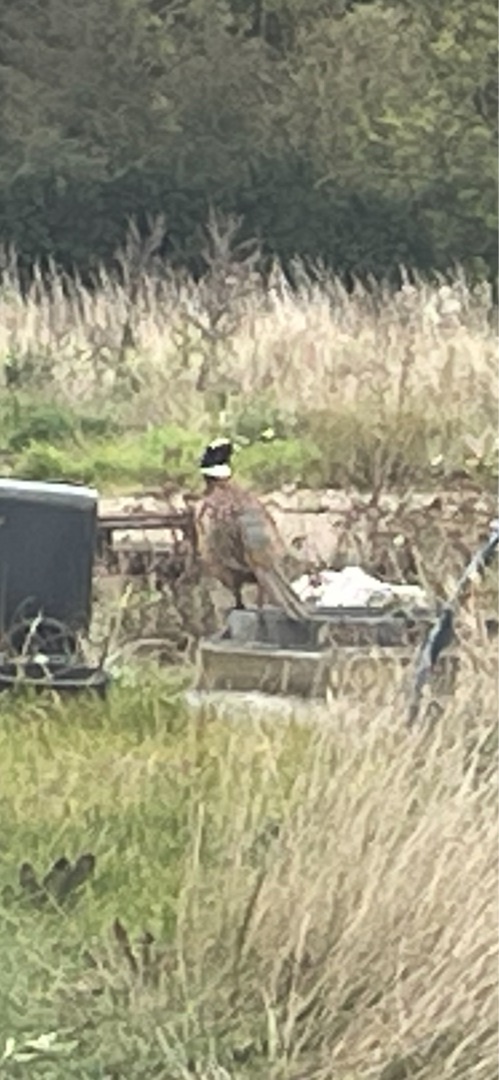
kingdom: Animalia
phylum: Chordata
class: Aves
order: Galliformes
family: Phasianidae
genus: Syrmaticus
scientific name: Syrmaticus reevesii
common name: Kongefasan
